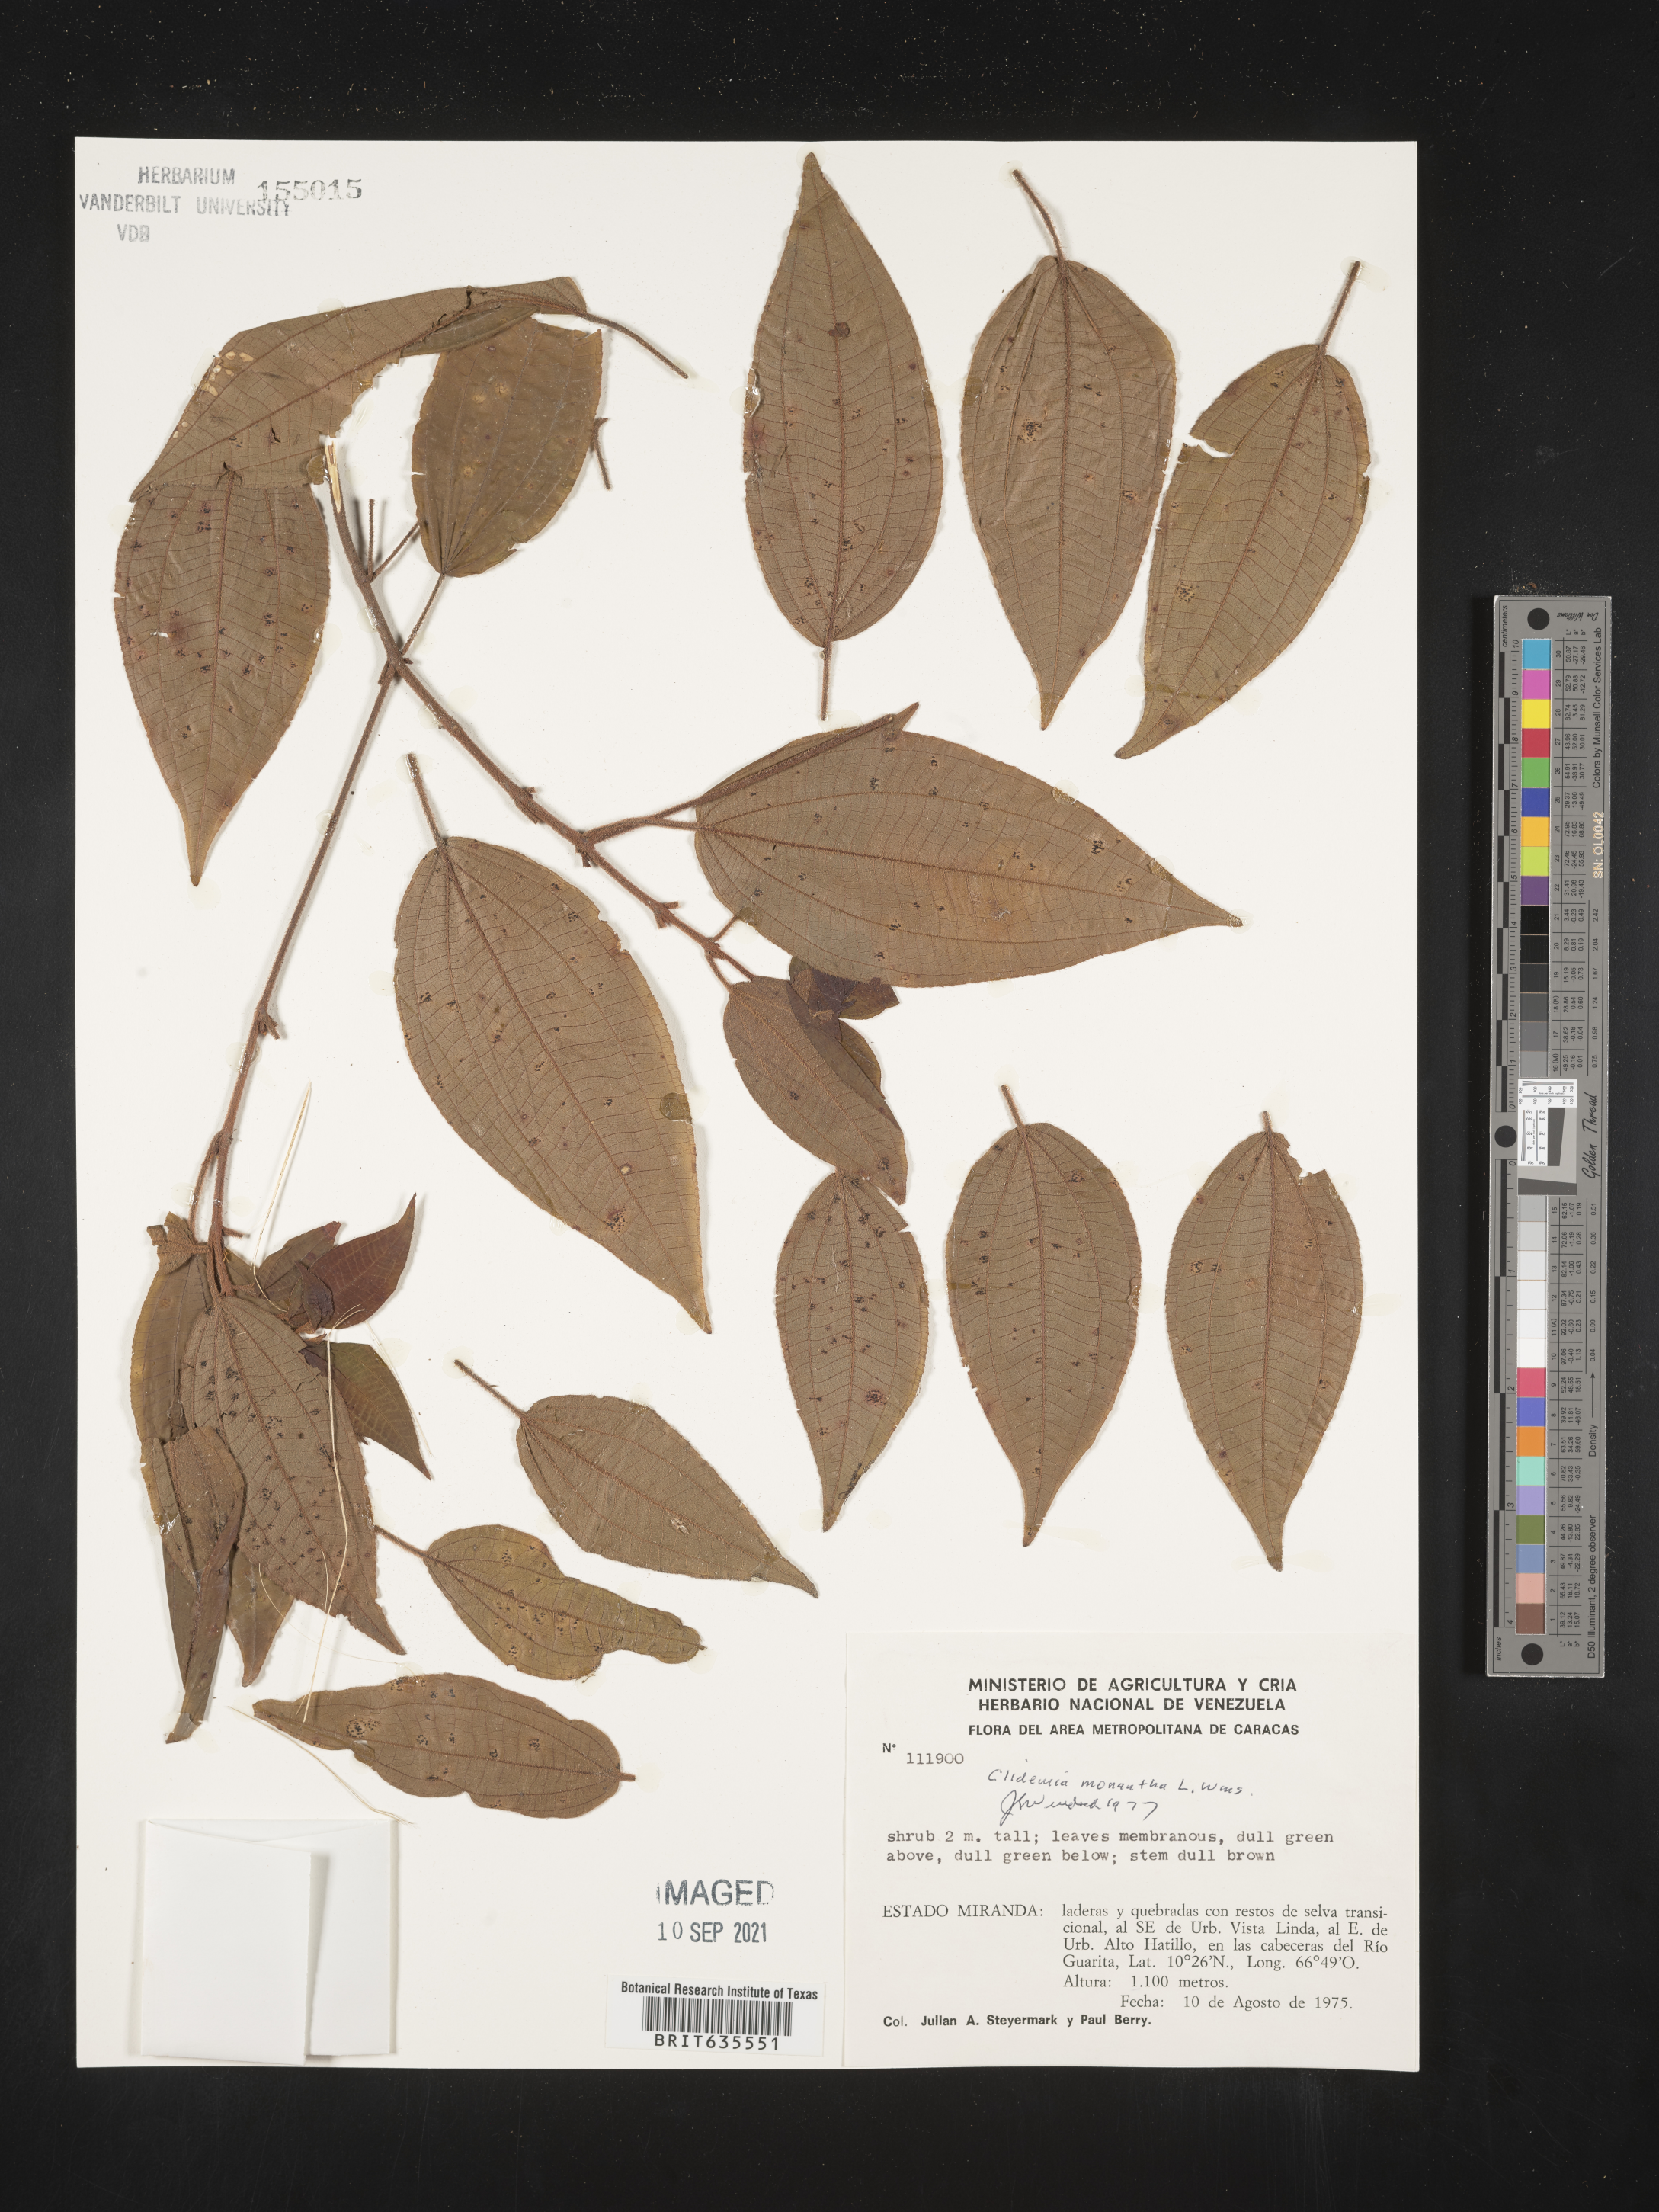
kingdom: Plantae
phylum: Tracheophyta
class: Magnoliopsida
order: Myrtales
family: Melastomataceae
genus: Miconia
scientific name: Miconia
